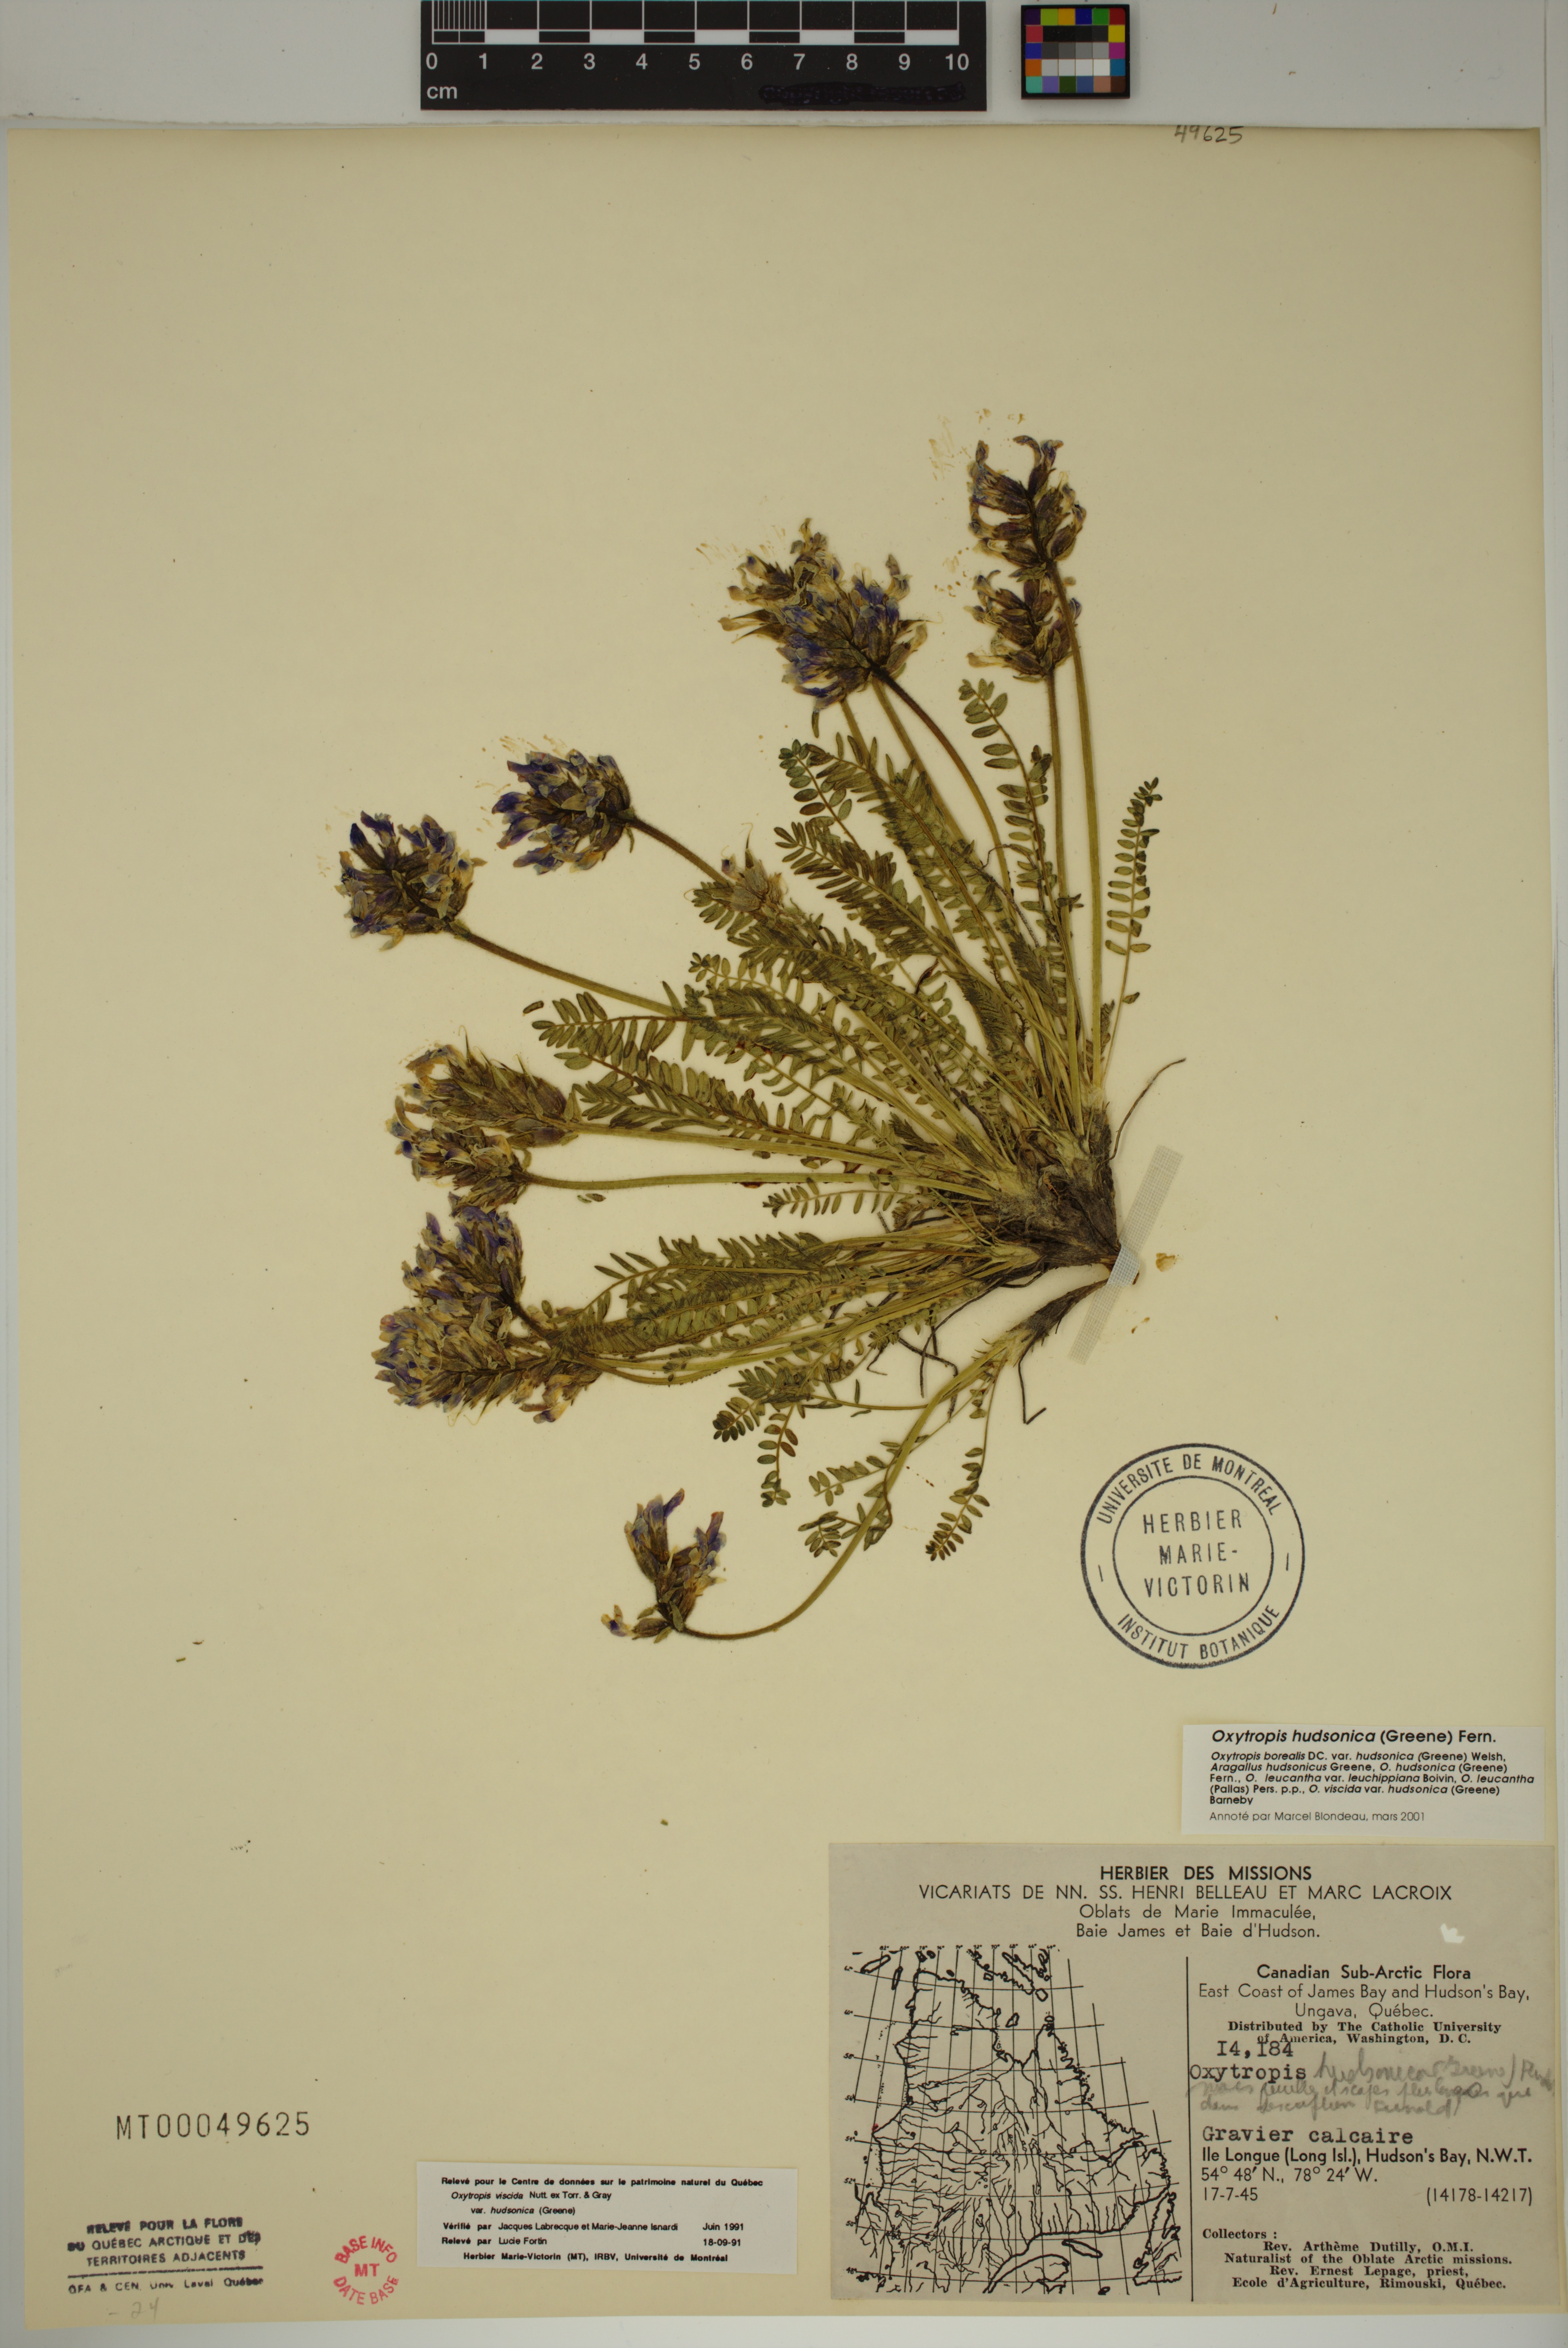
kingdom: Plantae
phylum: Tracheophyta
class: Magnoliopsida
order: Fabales
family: Fabaceae
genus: Oxytropis
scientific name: Oxytropis hudsonica
